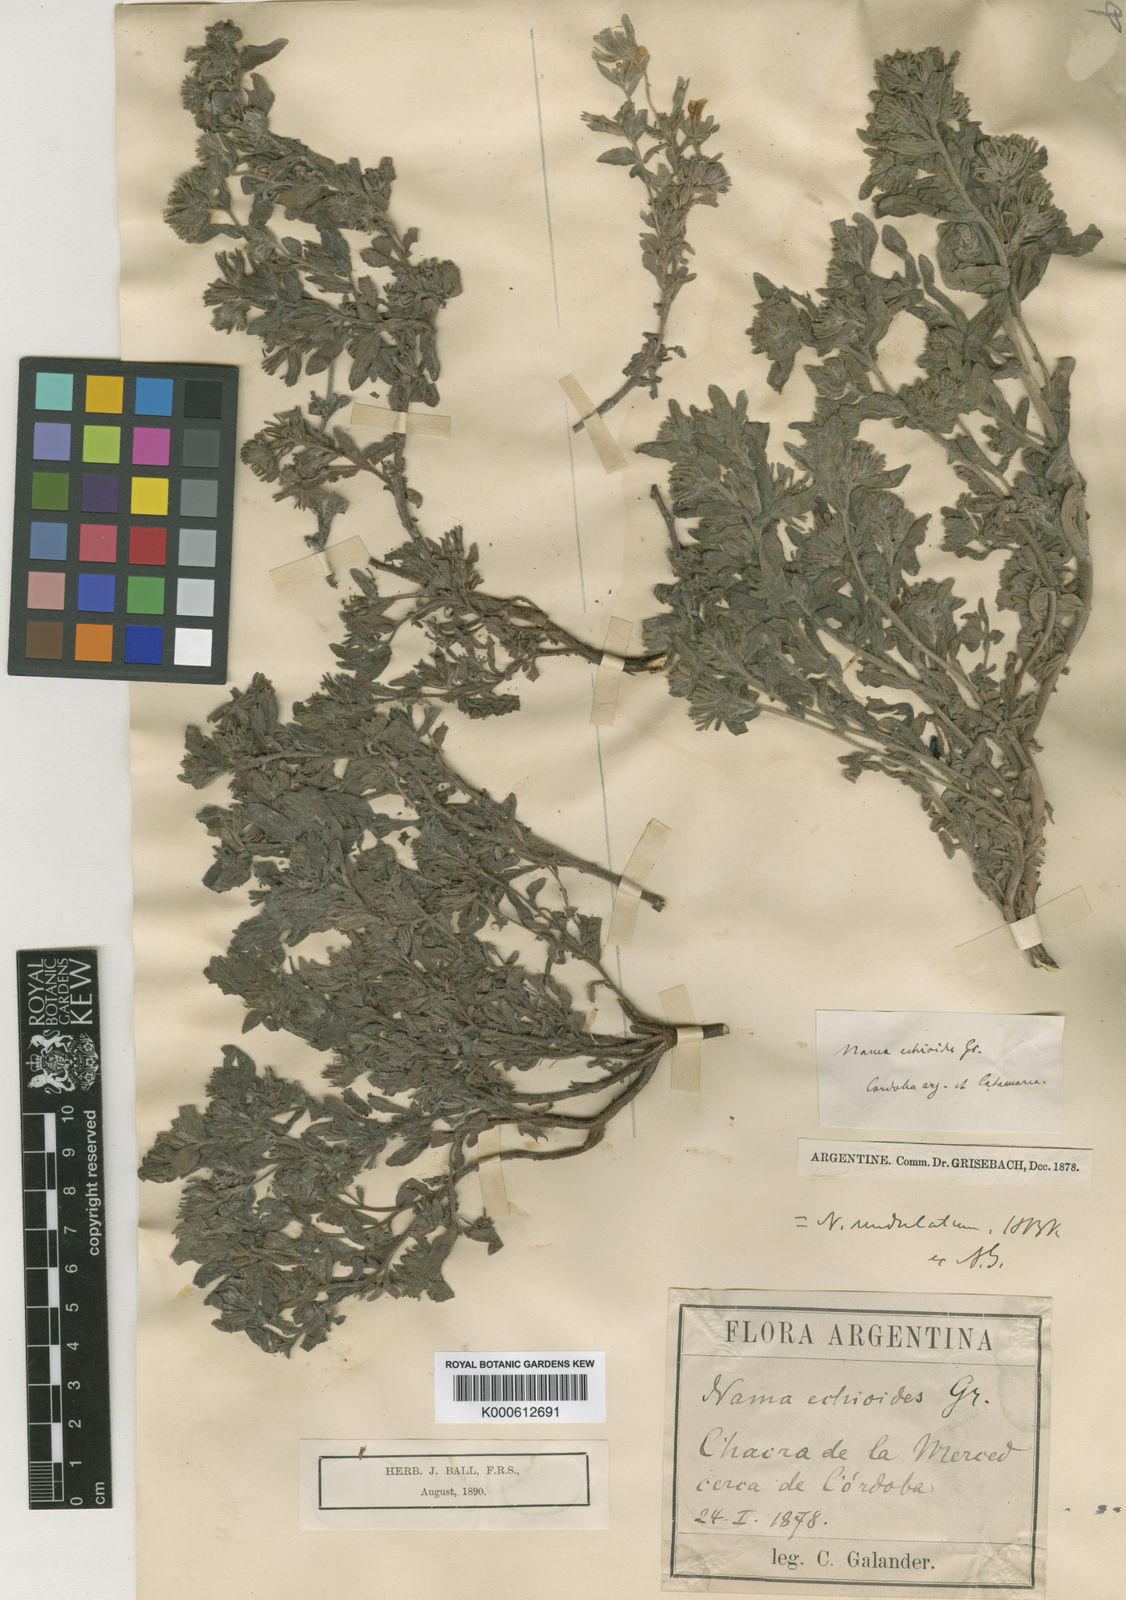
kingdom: Plantae
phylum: Tracheophyta
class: Magnoliopsida
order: Boraginales
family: Namaceae
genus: Nama
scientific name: Nama undulata
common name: Whitewhisker fiddleleaf
